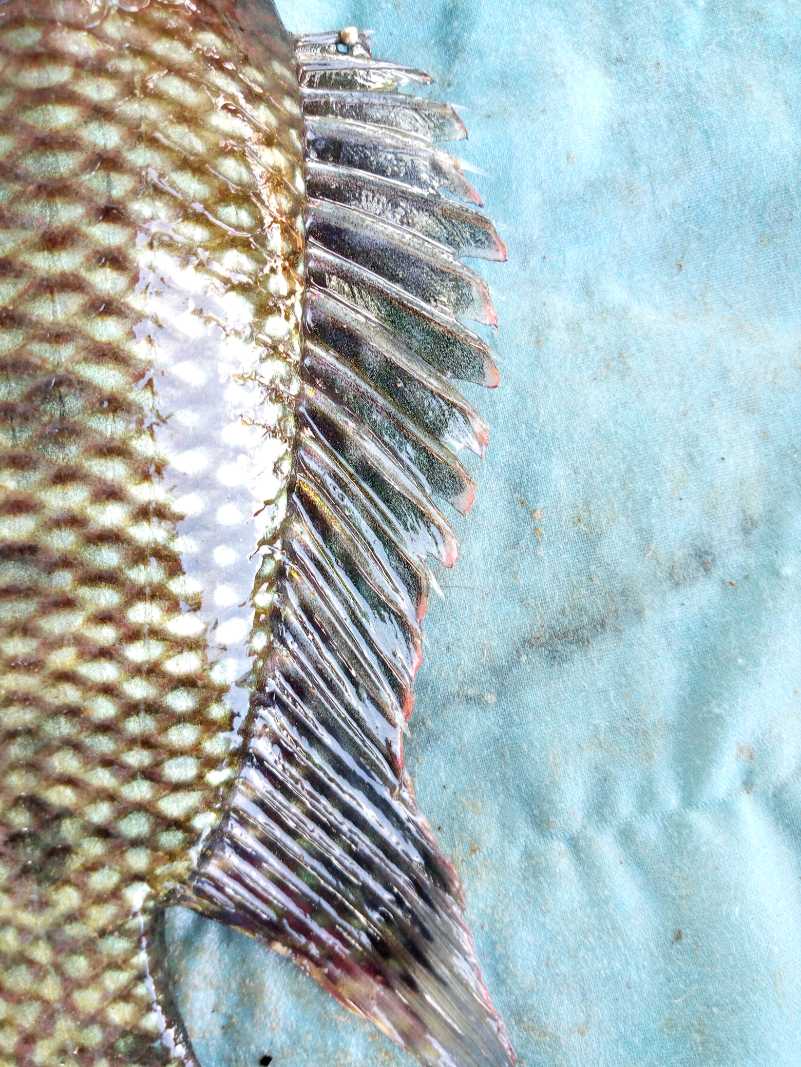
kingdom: Animalia
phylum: Chordata
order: Perciformes
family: Cichlidae
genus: Oreochromis
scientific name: Oreochromis spilurus
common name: Sabaki tilapia
